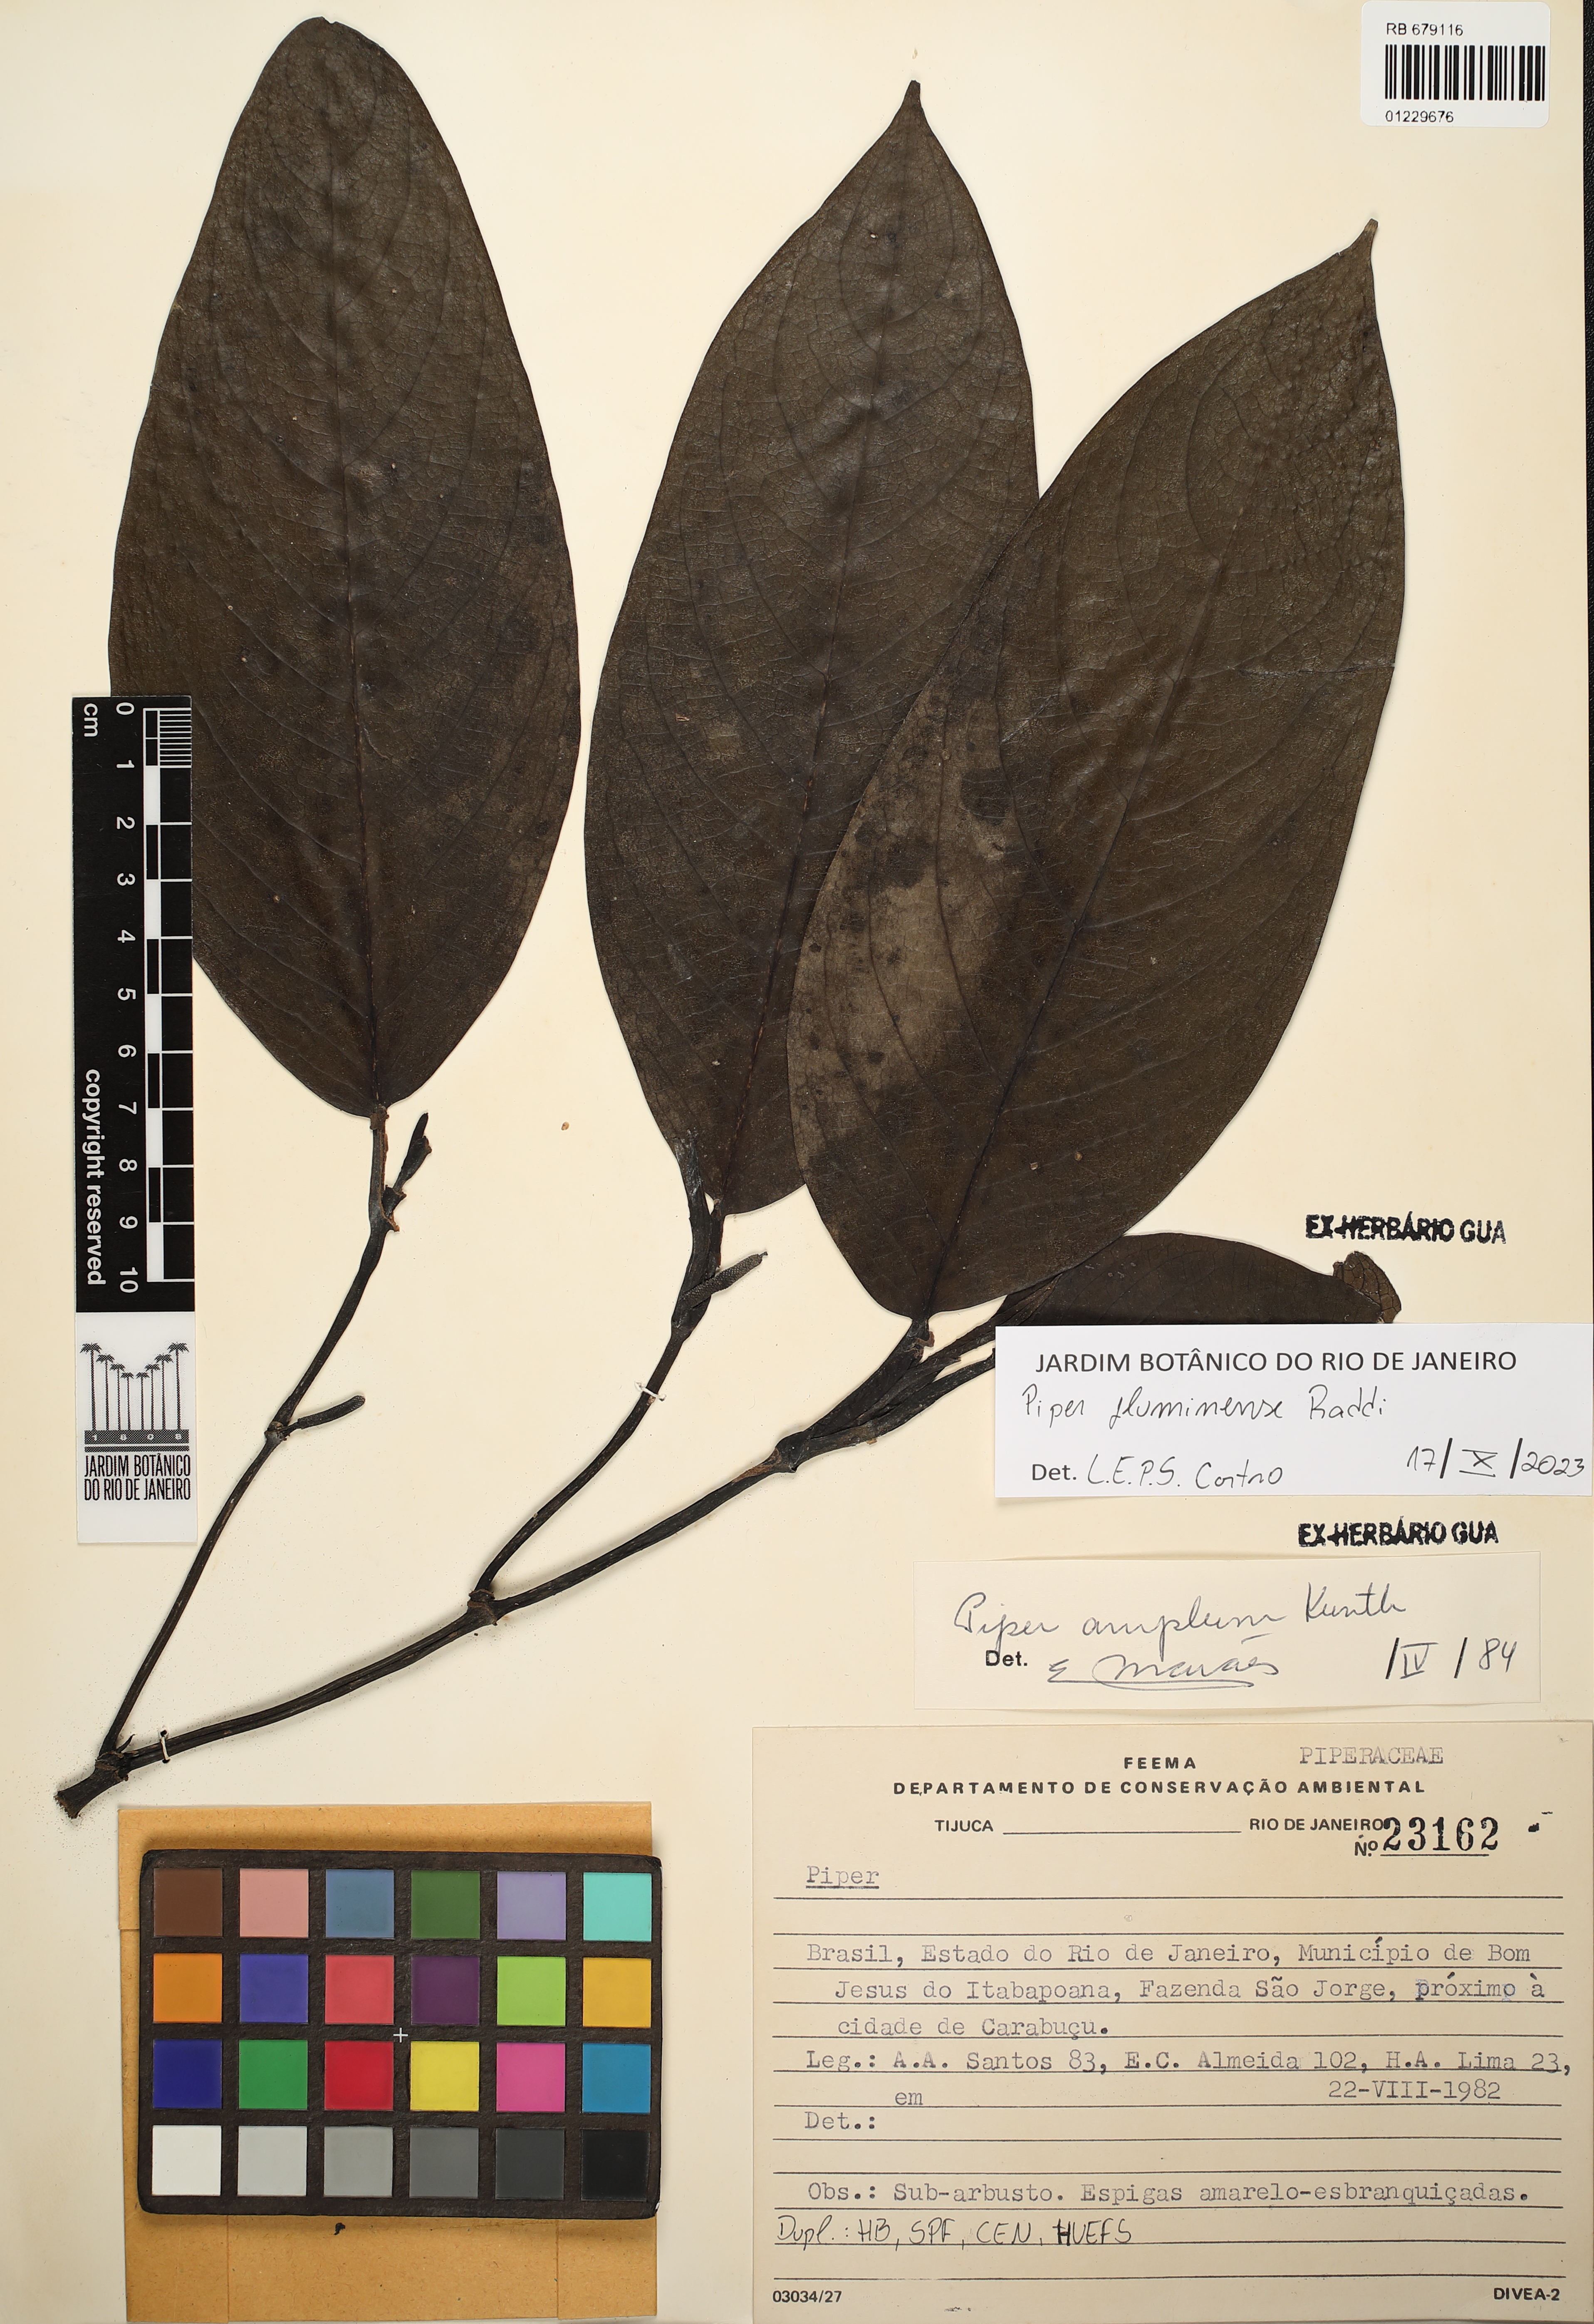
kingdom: Plantae
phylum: Tracheophyta
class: Magnoliopsida
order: Piperales
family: Piperaceae
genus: Piper
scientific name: Piper fluminense
